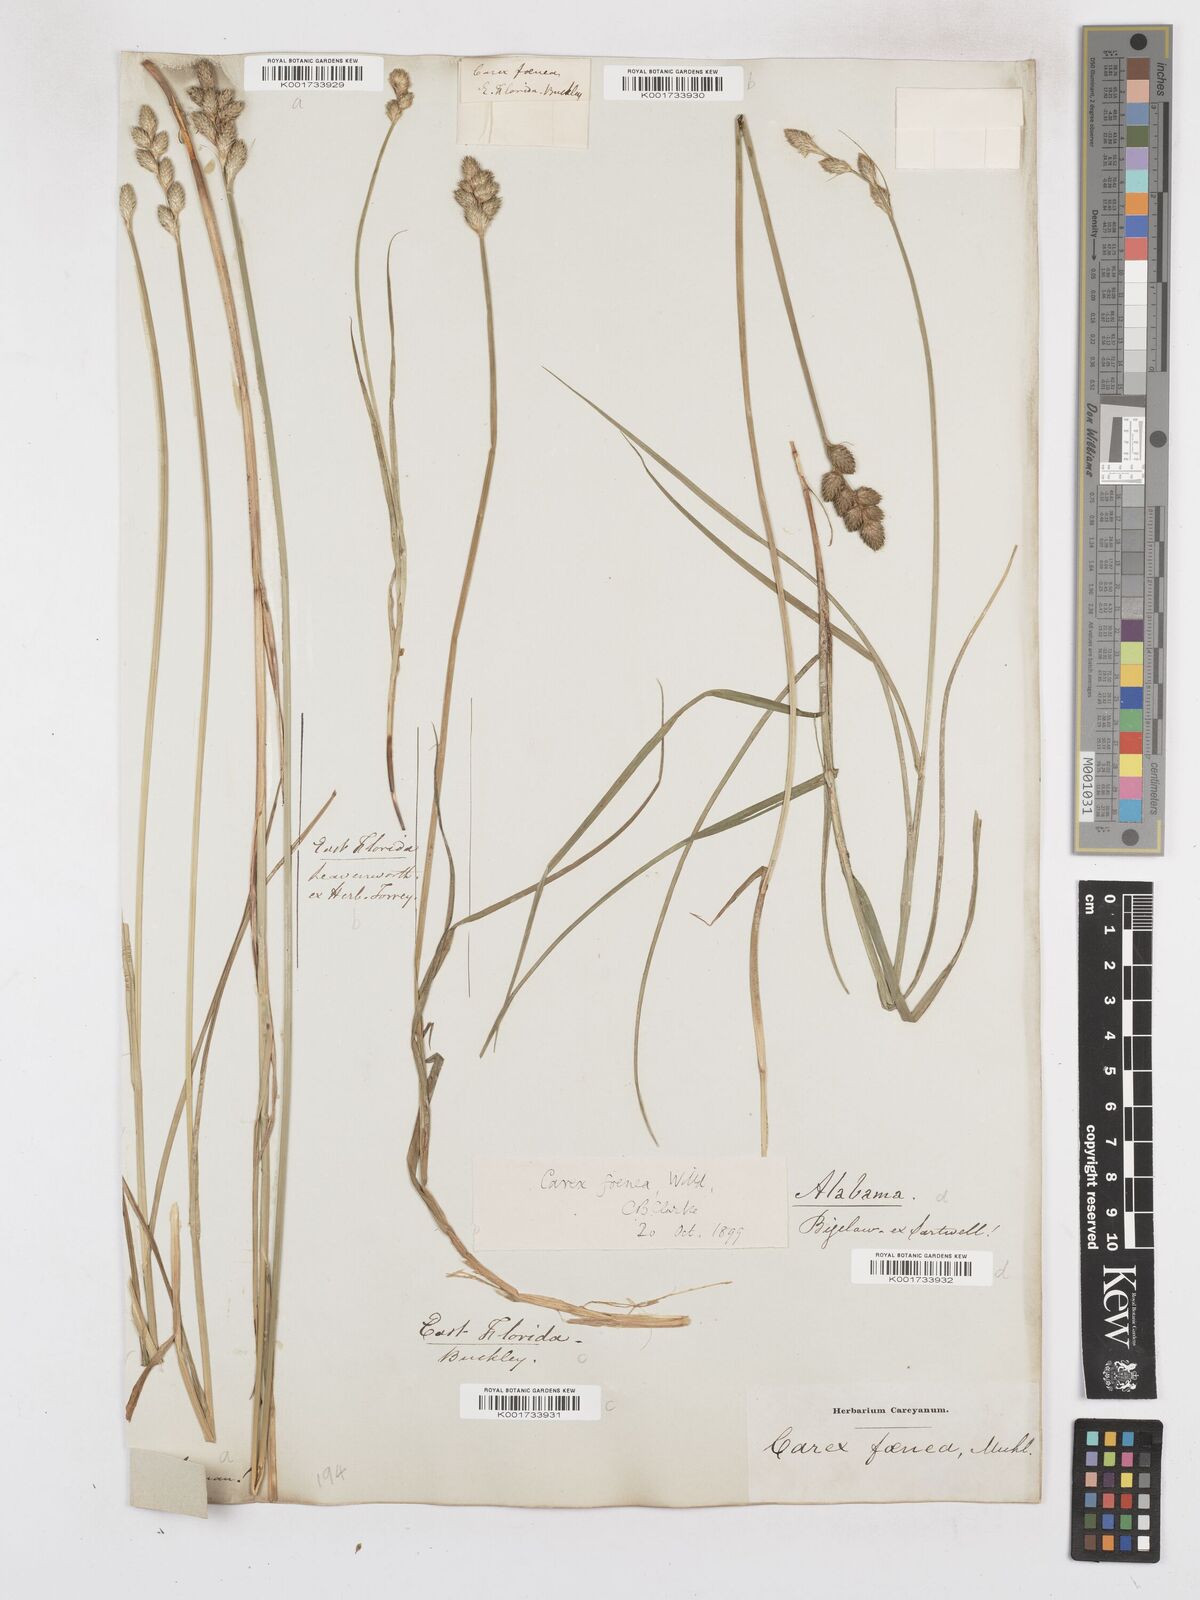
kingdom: Plantae
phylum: Tracheophyta
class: Liliopsida
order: Poales
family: Cyperaceae
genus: Carex
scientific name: Carex argyrantha
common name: Silvery-flowered sedge
